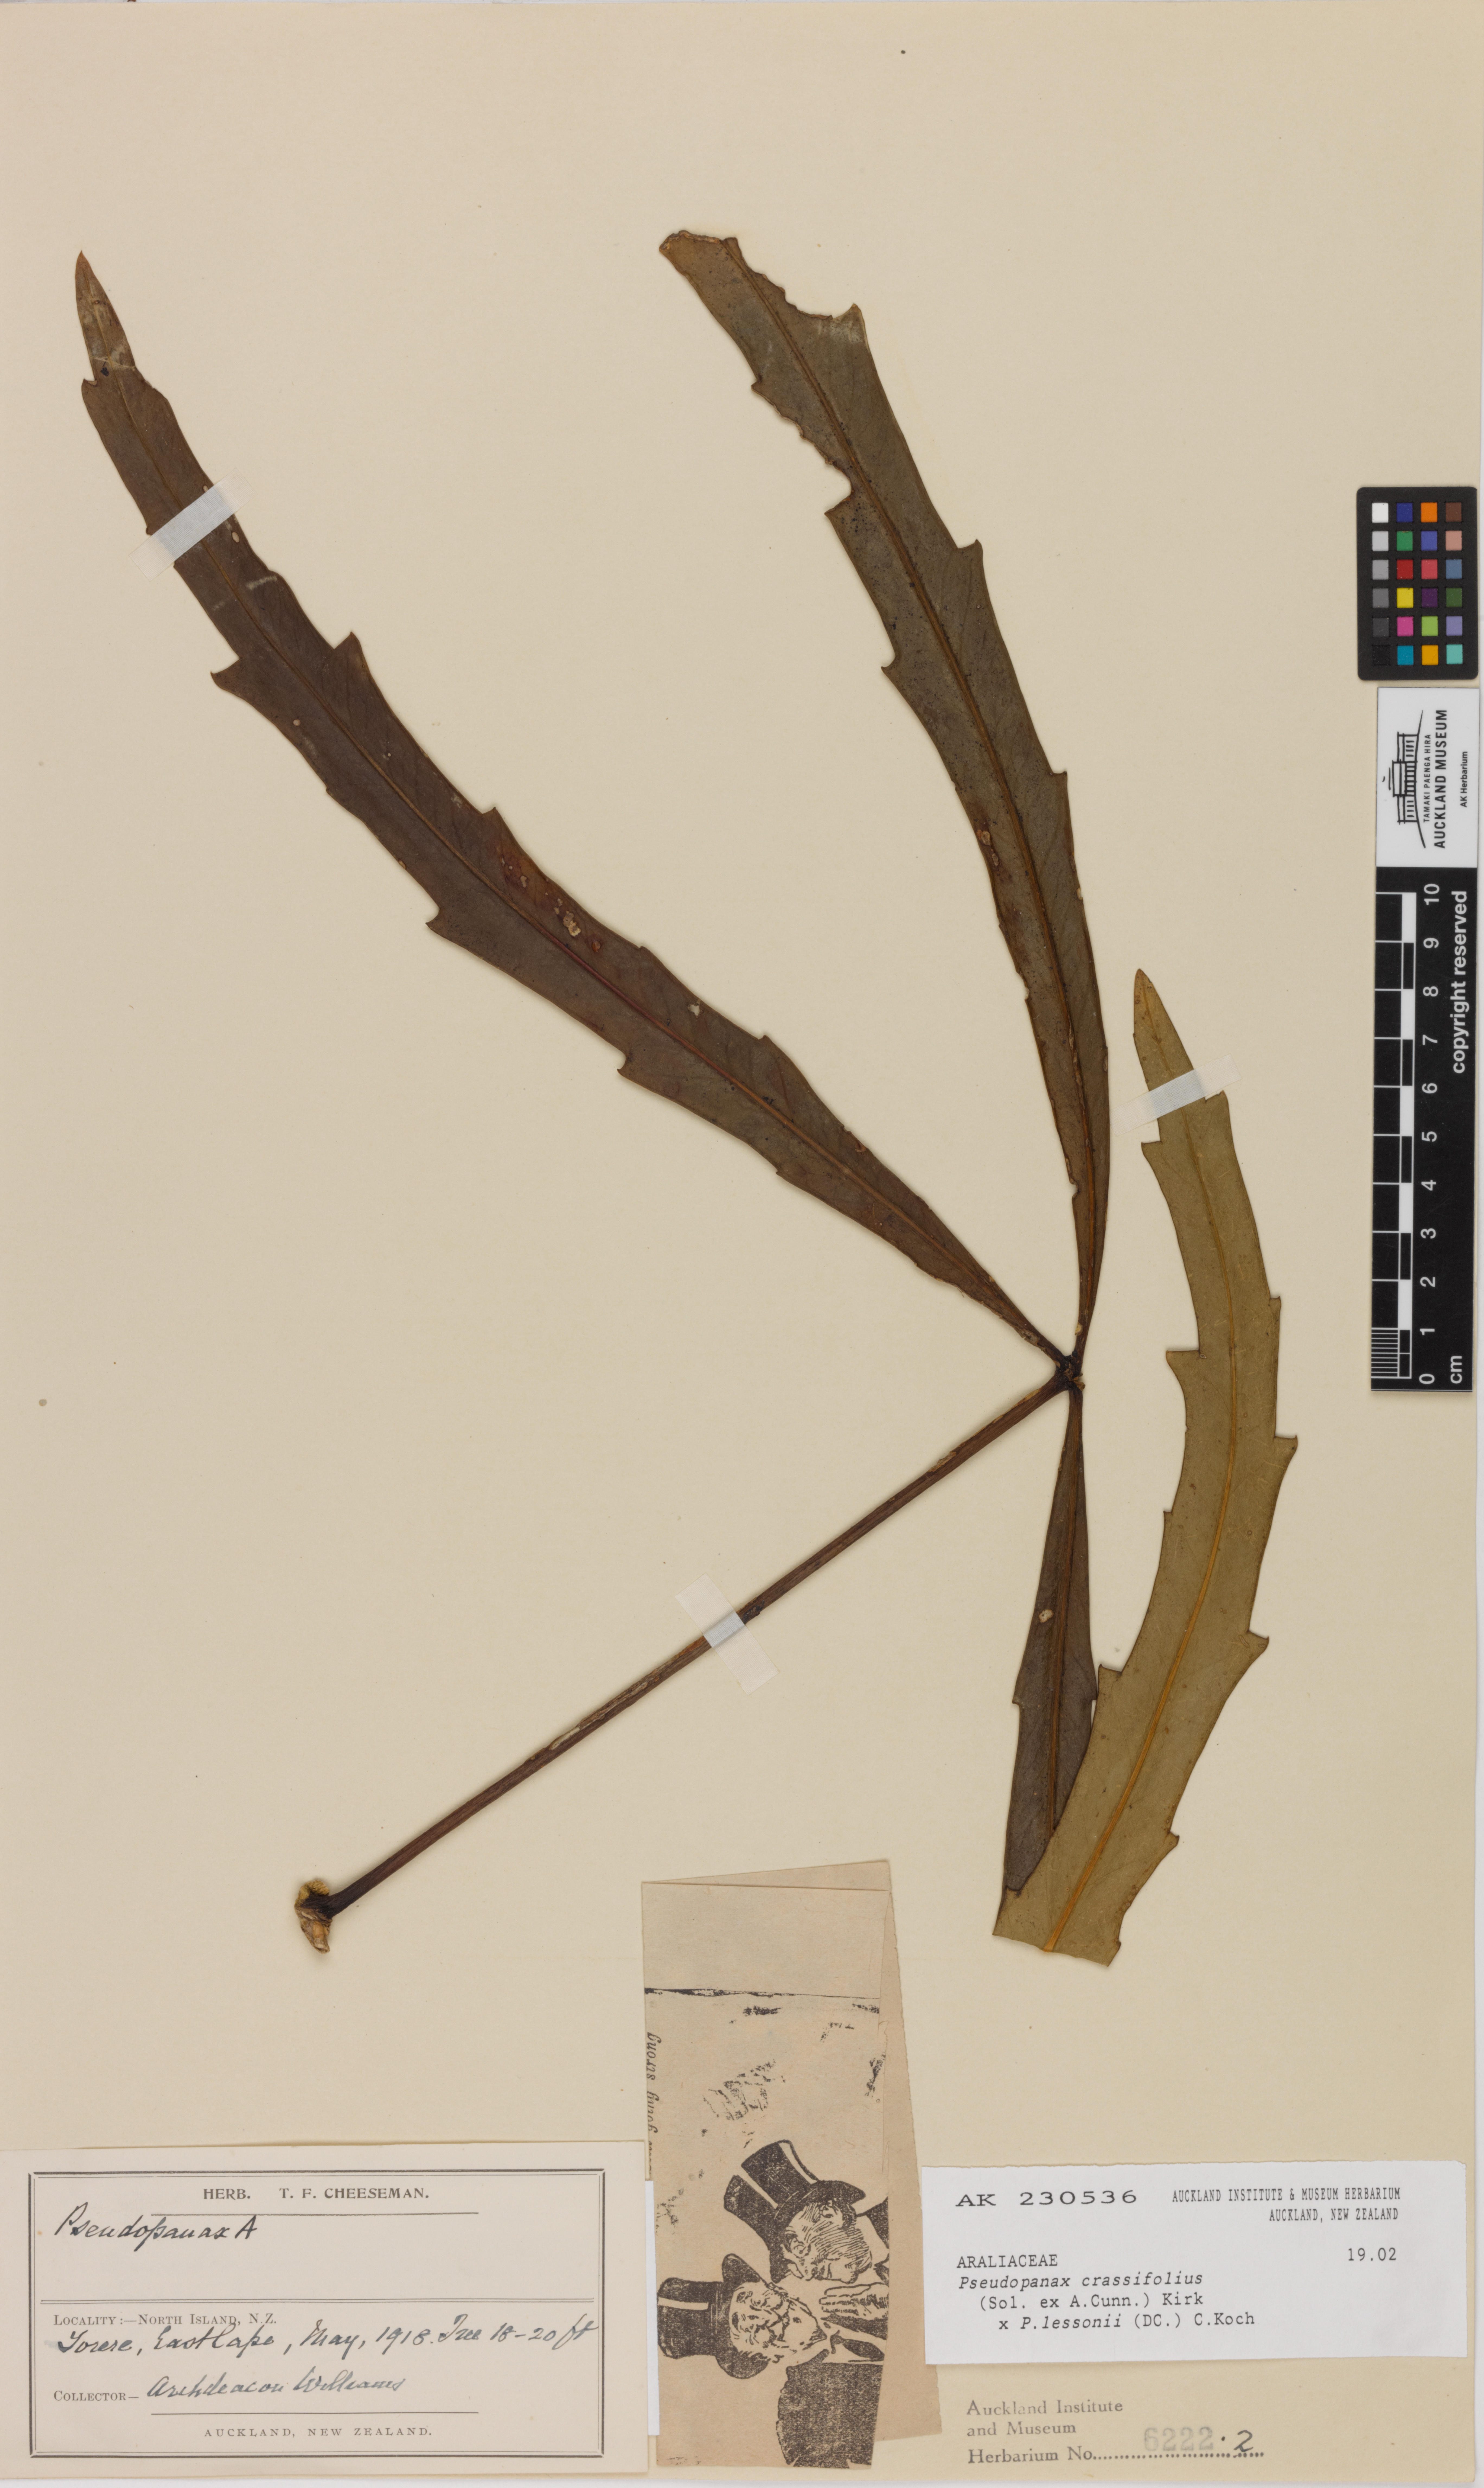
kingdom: Plantae
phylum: Tracheophyta
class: Magnoliopsida
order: Apiales
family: Araliaceae
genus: Pseudopanax
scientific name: Pseudopanax
